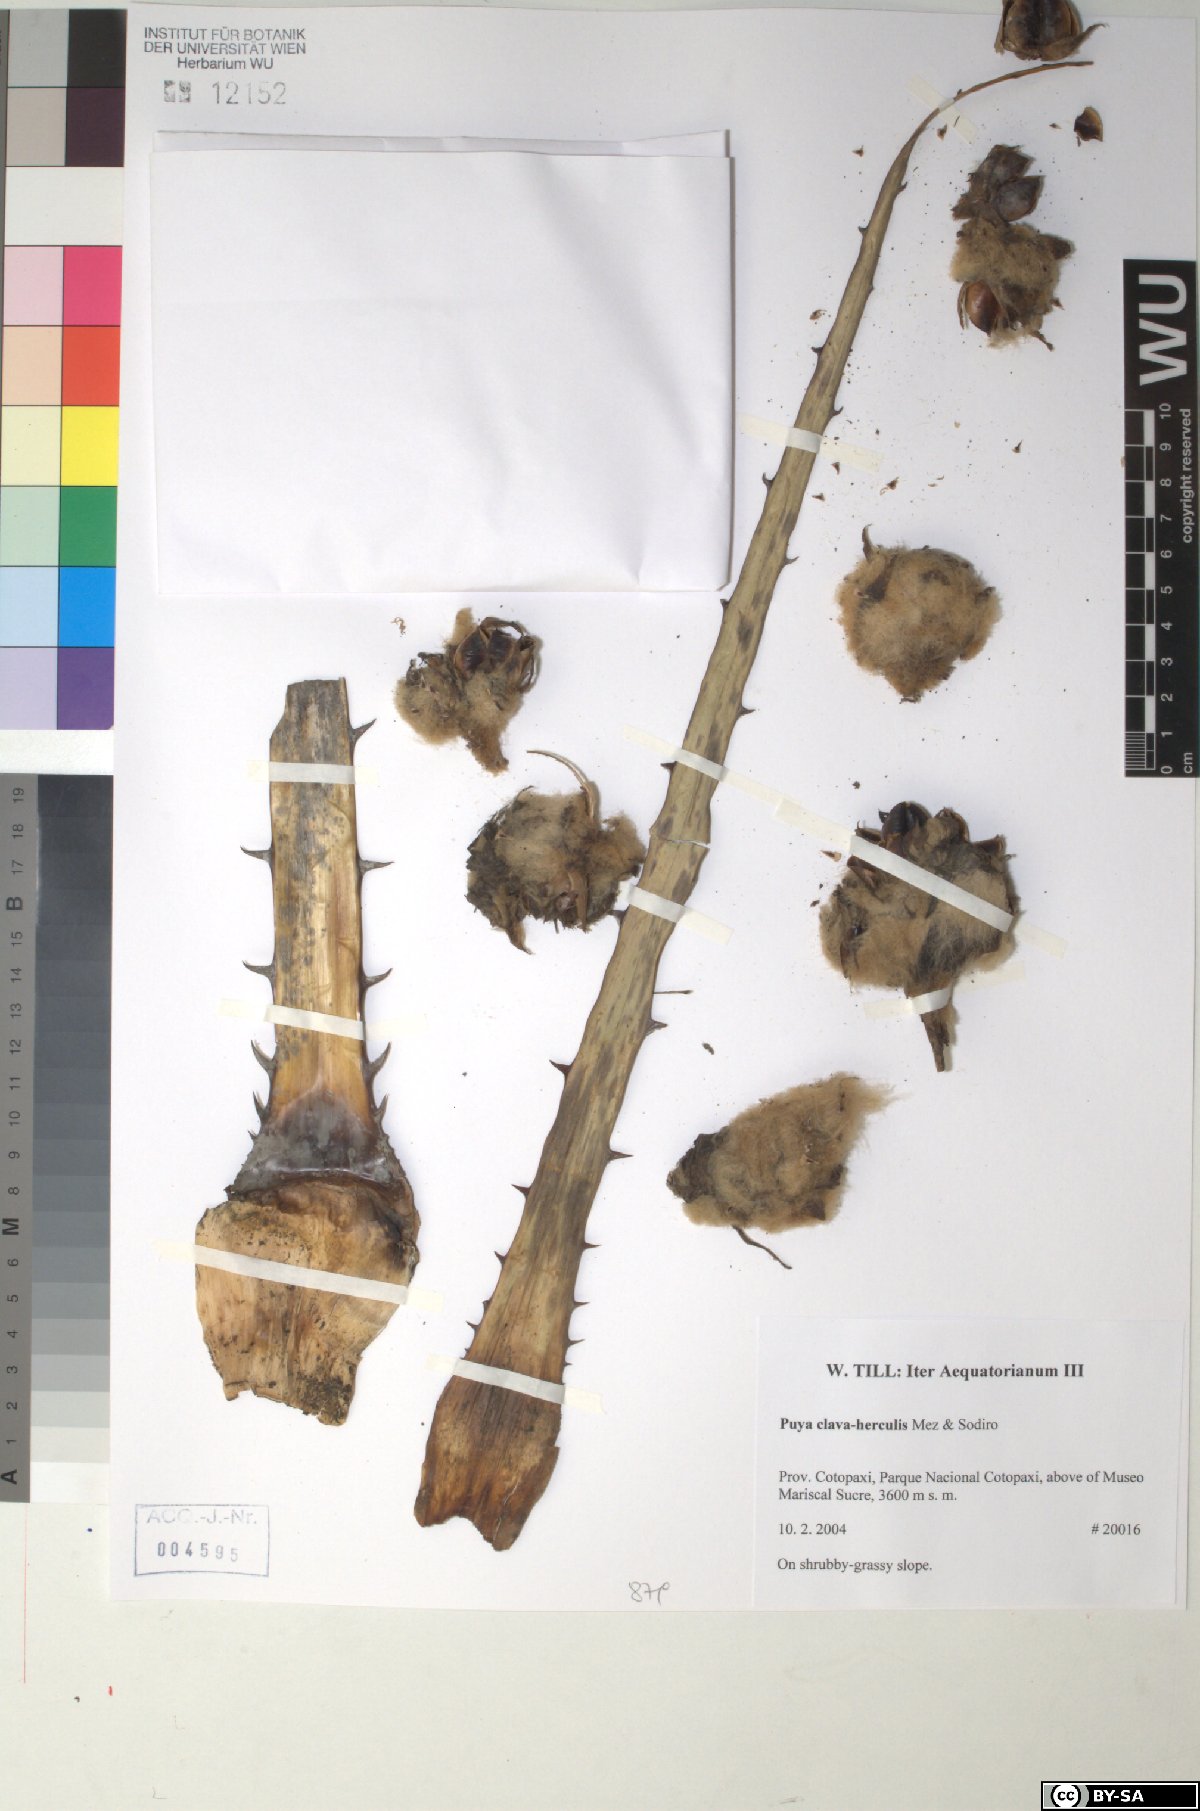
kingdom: Plantae
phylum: Tracheophyta
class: Liliopsida
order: Poales
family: Bromeliaceae
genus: Puya
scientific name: Puya clava-herculis
